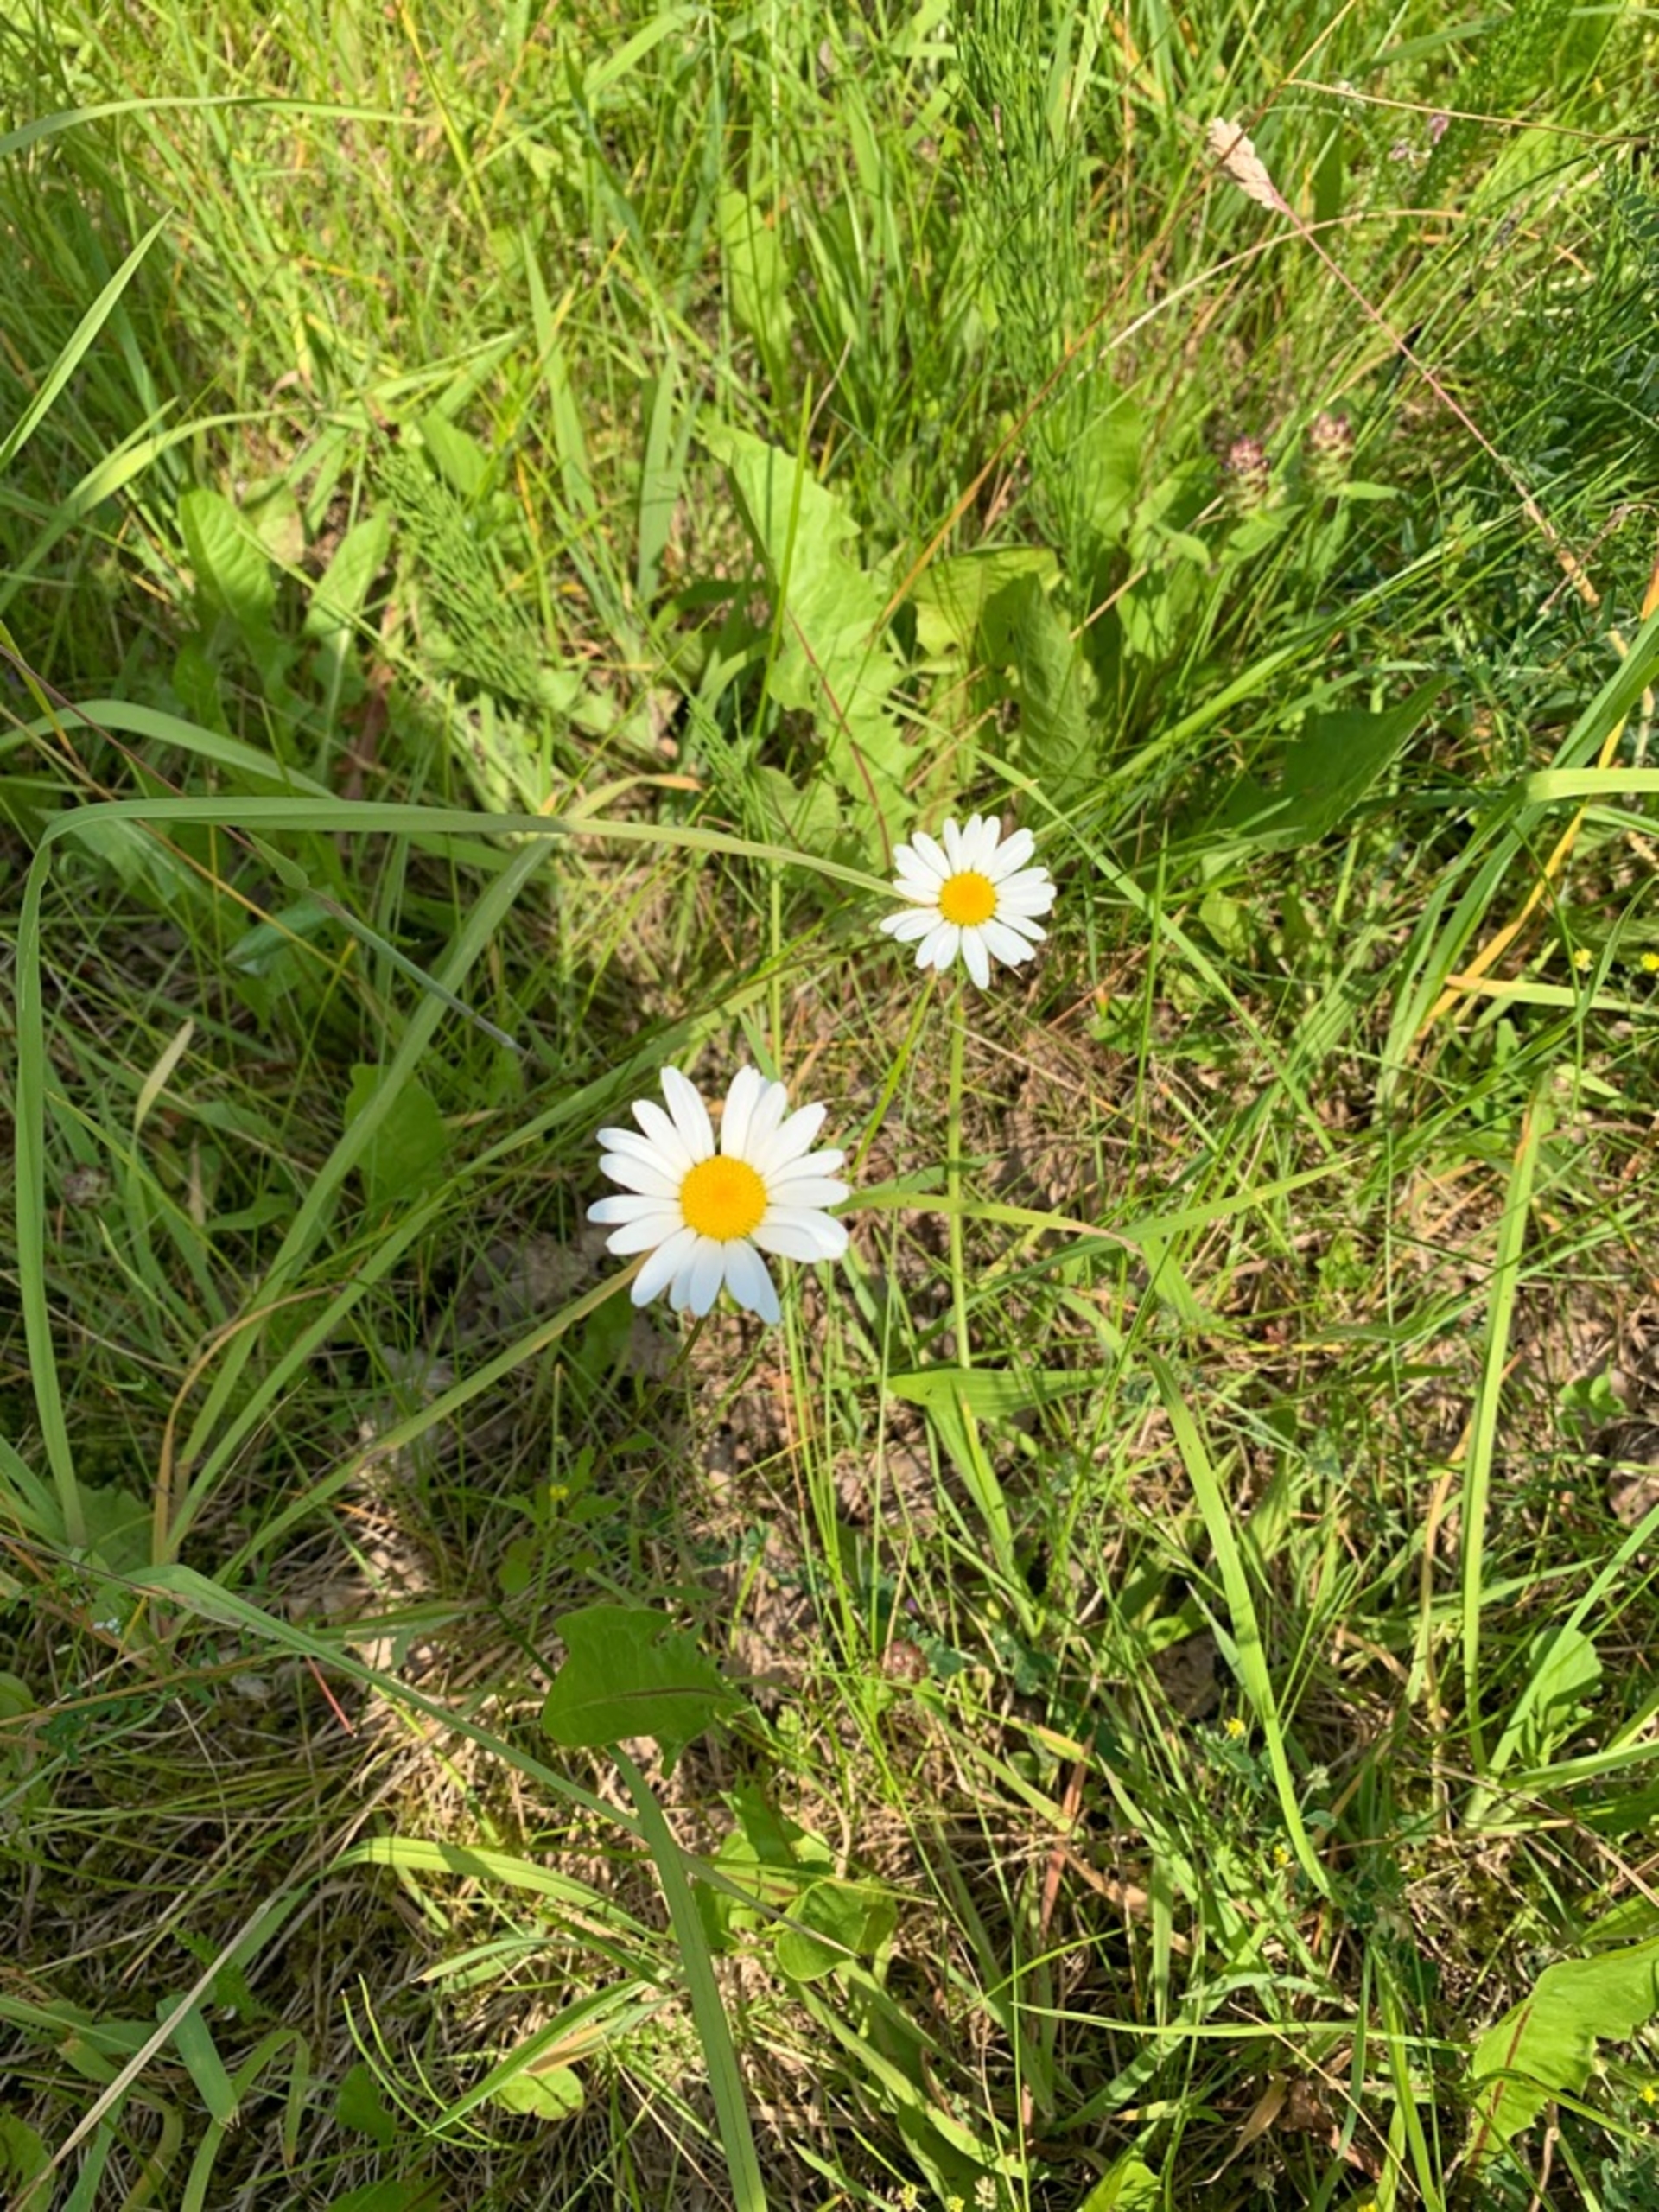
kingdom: Plantae
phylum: Tracheophyta
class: Magnoliopsida
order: Asterales
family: Asteraceae
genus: Leucanthemum
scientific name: Leucanthemum vulgare
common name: Hvid okseøje
